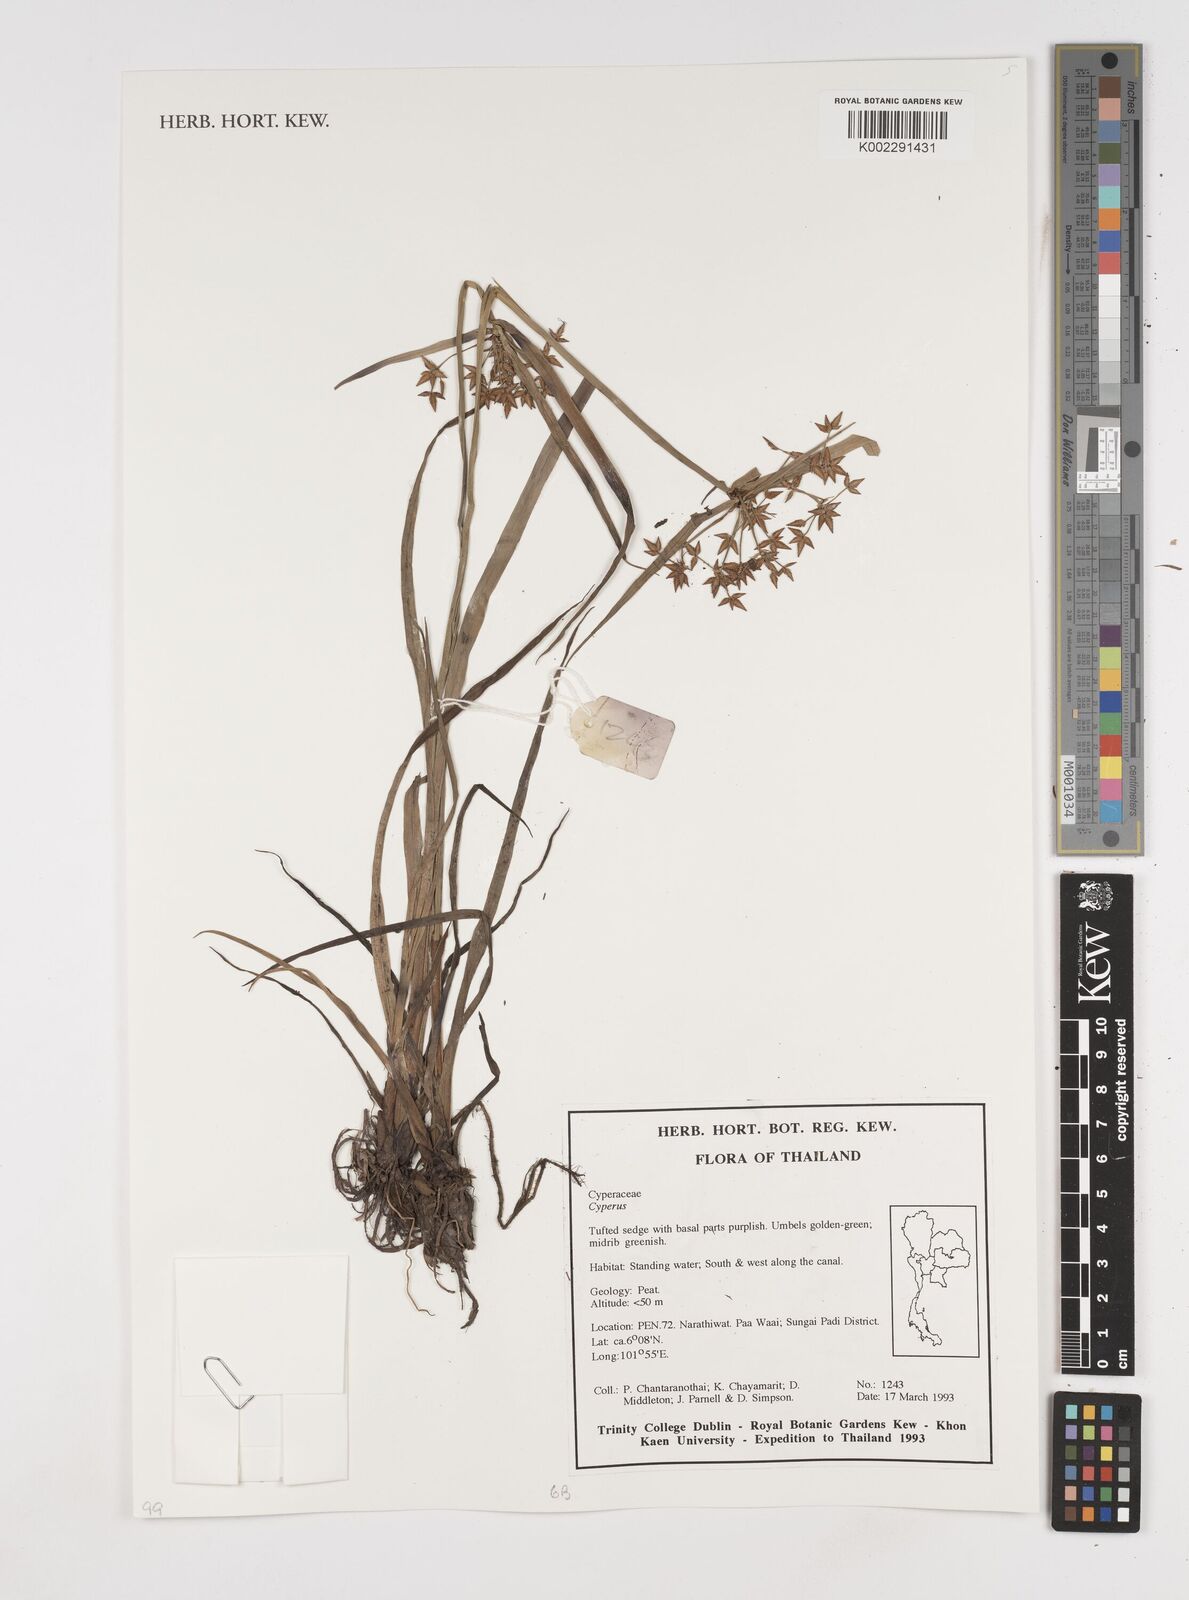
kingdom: Plantae
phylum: Tracheophyta
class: Liliopsida
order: Poales
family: Cyperaceae
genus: Cyperus
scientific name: Cyperus
